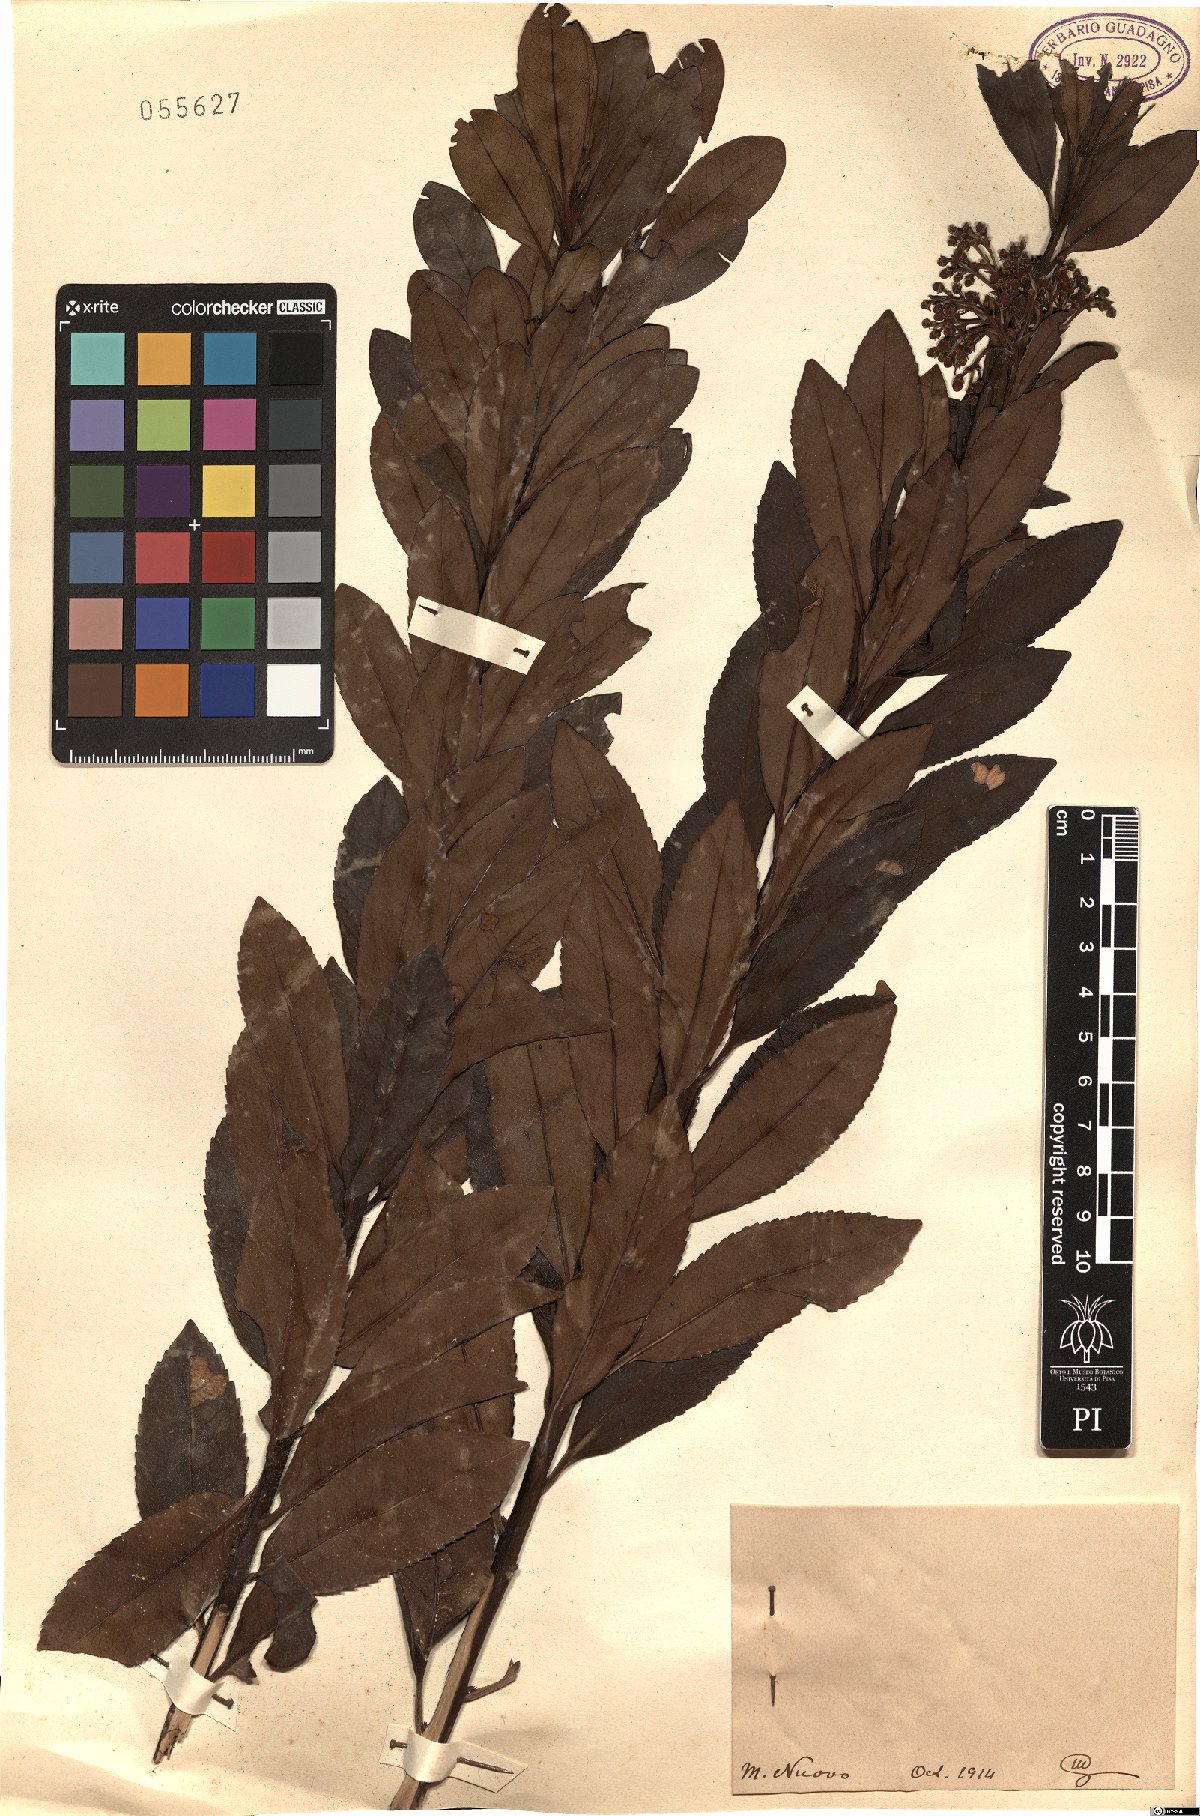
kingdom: Plantae
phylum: Tracheophyta
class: Magnoliopsida
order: Ericales
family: Ericaceae
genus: Arbutus
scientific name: Arbutus
